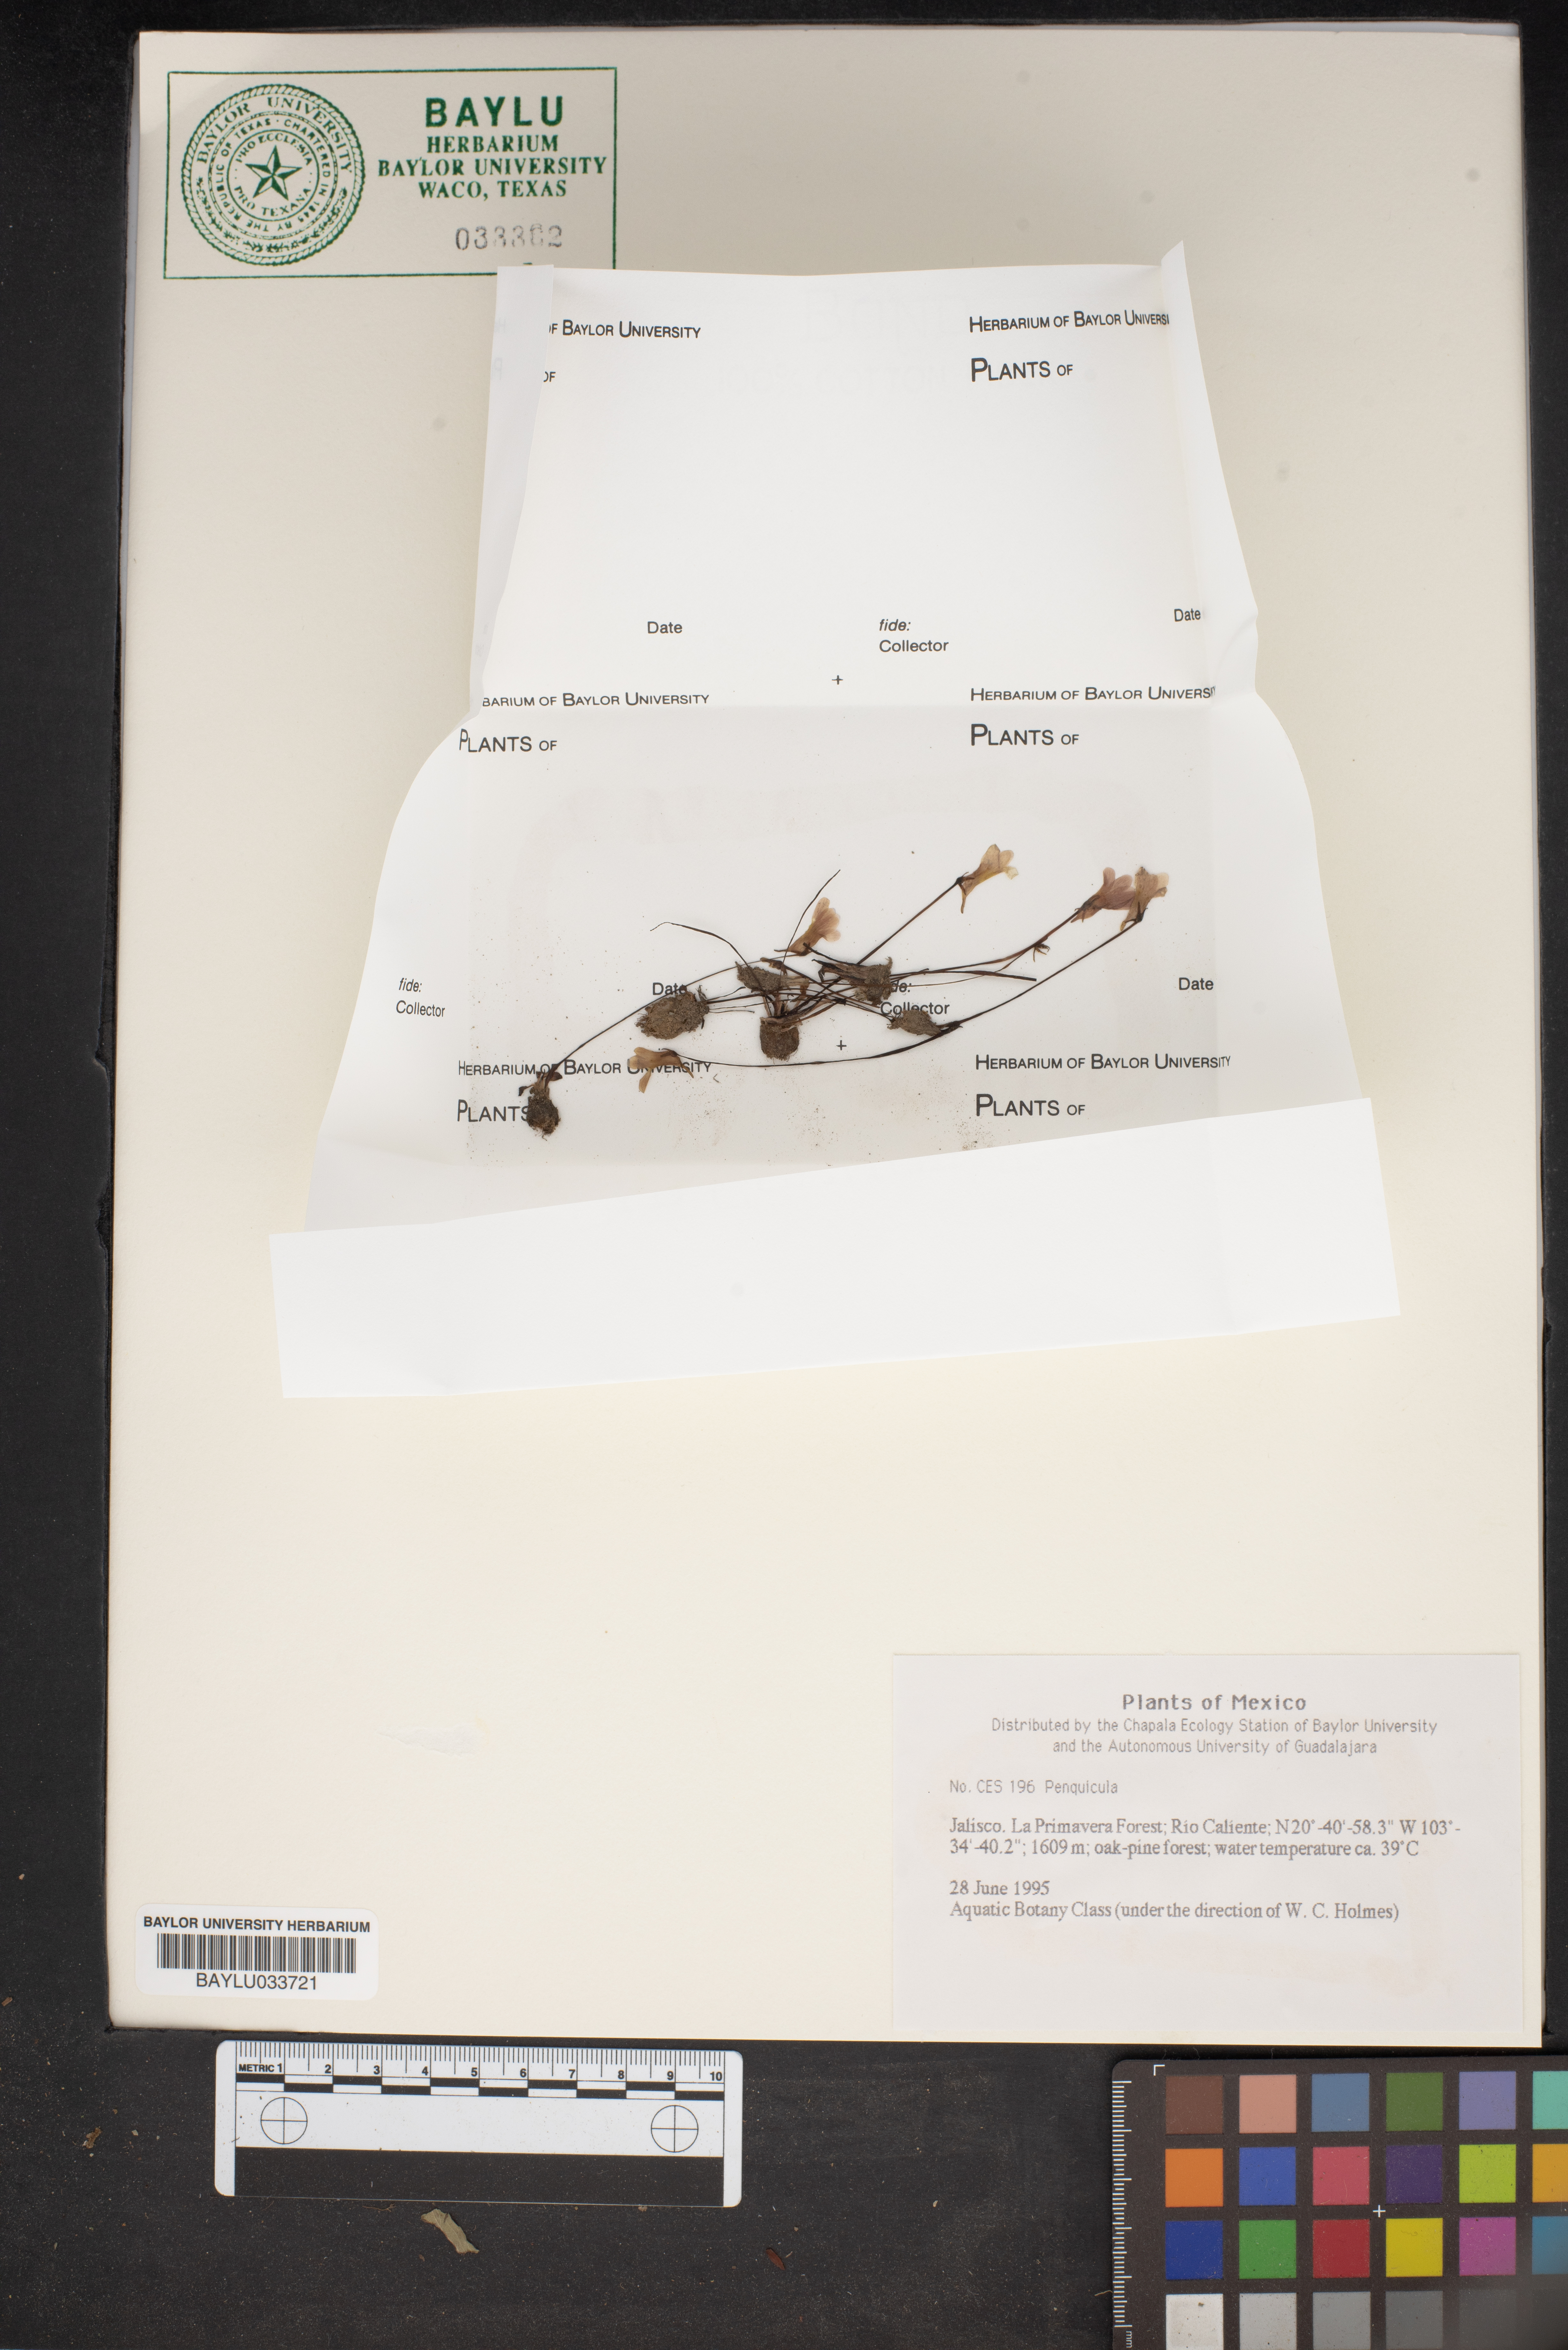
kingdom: Plantae
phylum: Tracheophyta
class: Magnoliopsida
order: Lamiales
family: Lentibulariaceae
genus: Pinguicula
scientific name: Pinguicula
